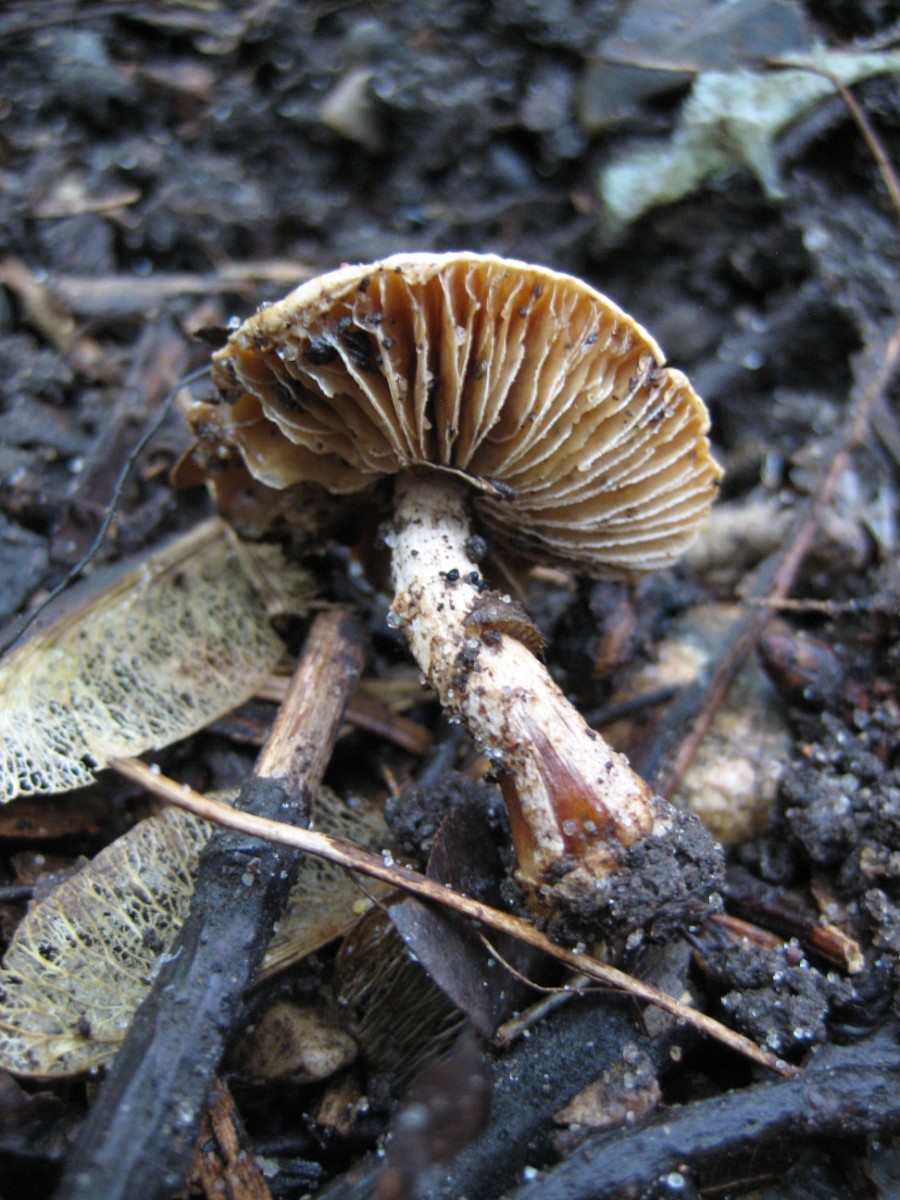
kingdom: Fungi
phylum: Basidiomycota
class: Agaricomycetes
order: Agaricales
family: Agaricaceae
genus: Lepiota
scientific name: Lepiota
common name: parasolhat
